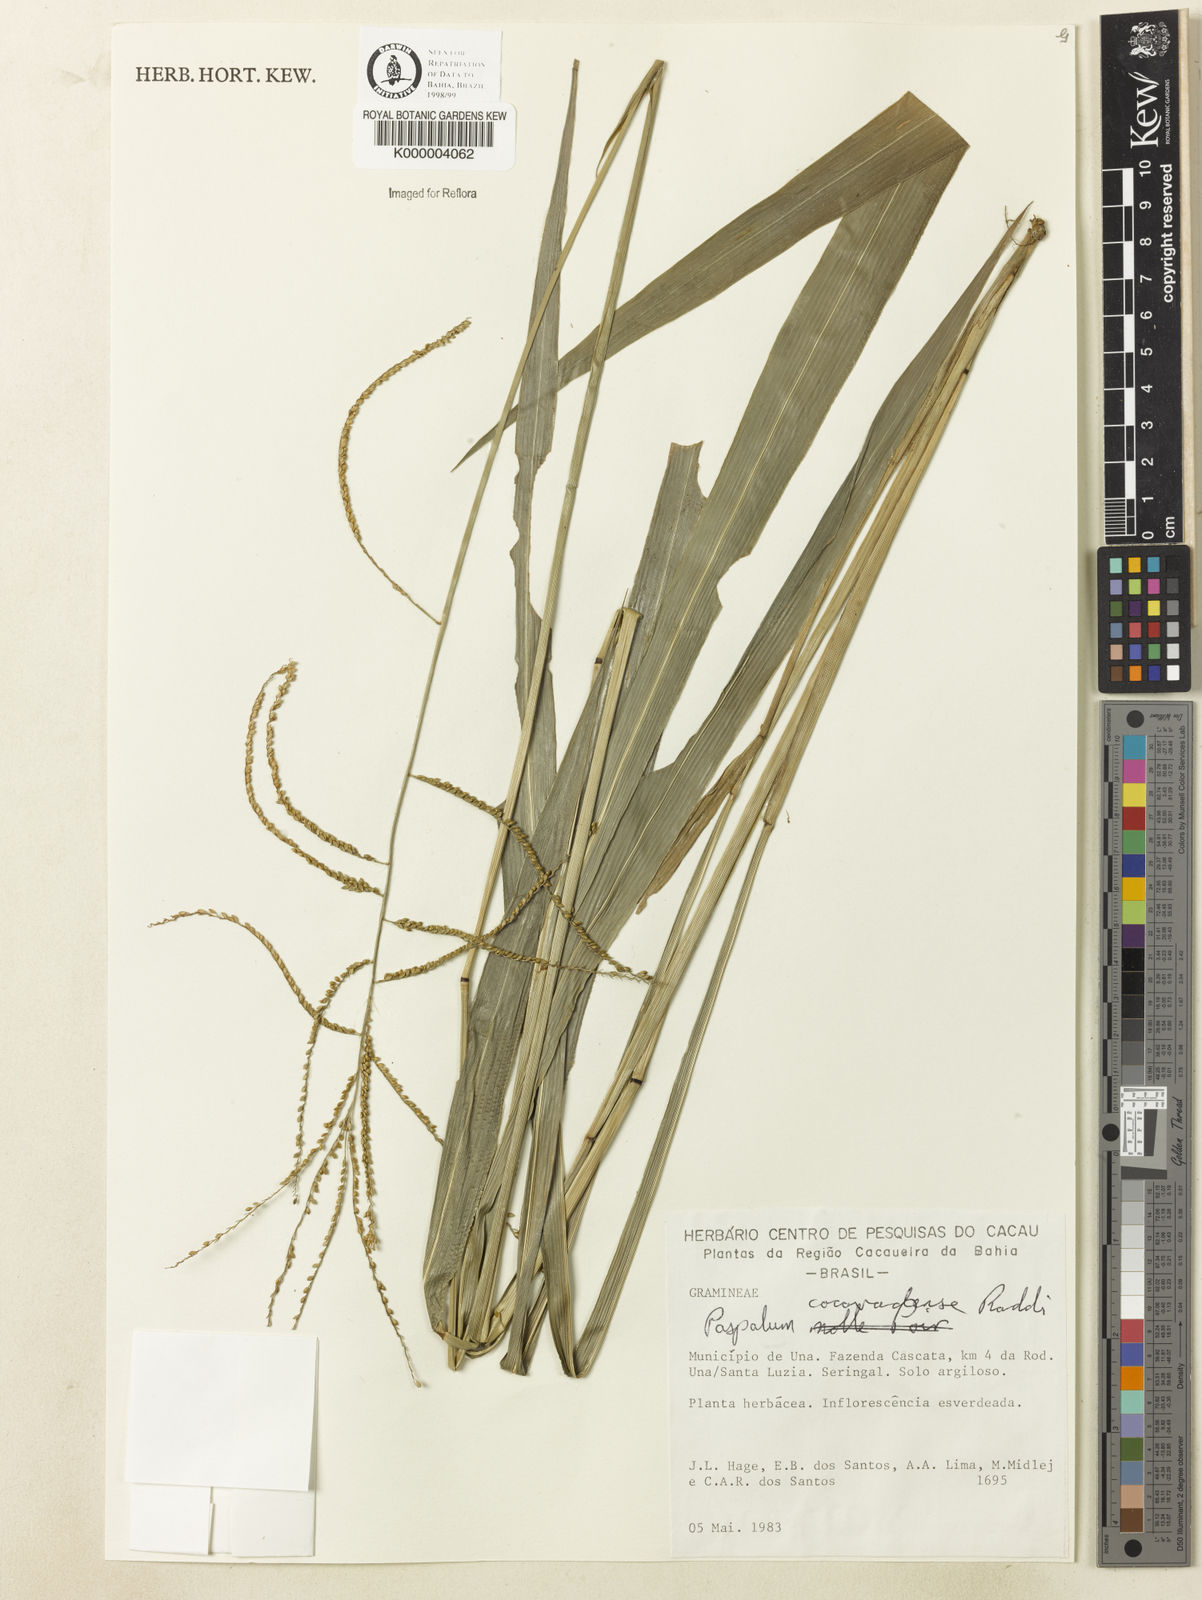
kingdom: Plantae
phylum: Tracheophyta
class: Liliopsida
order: Poales
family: Poaceae
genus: Paspalum
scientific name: Paspalum corcovadense
